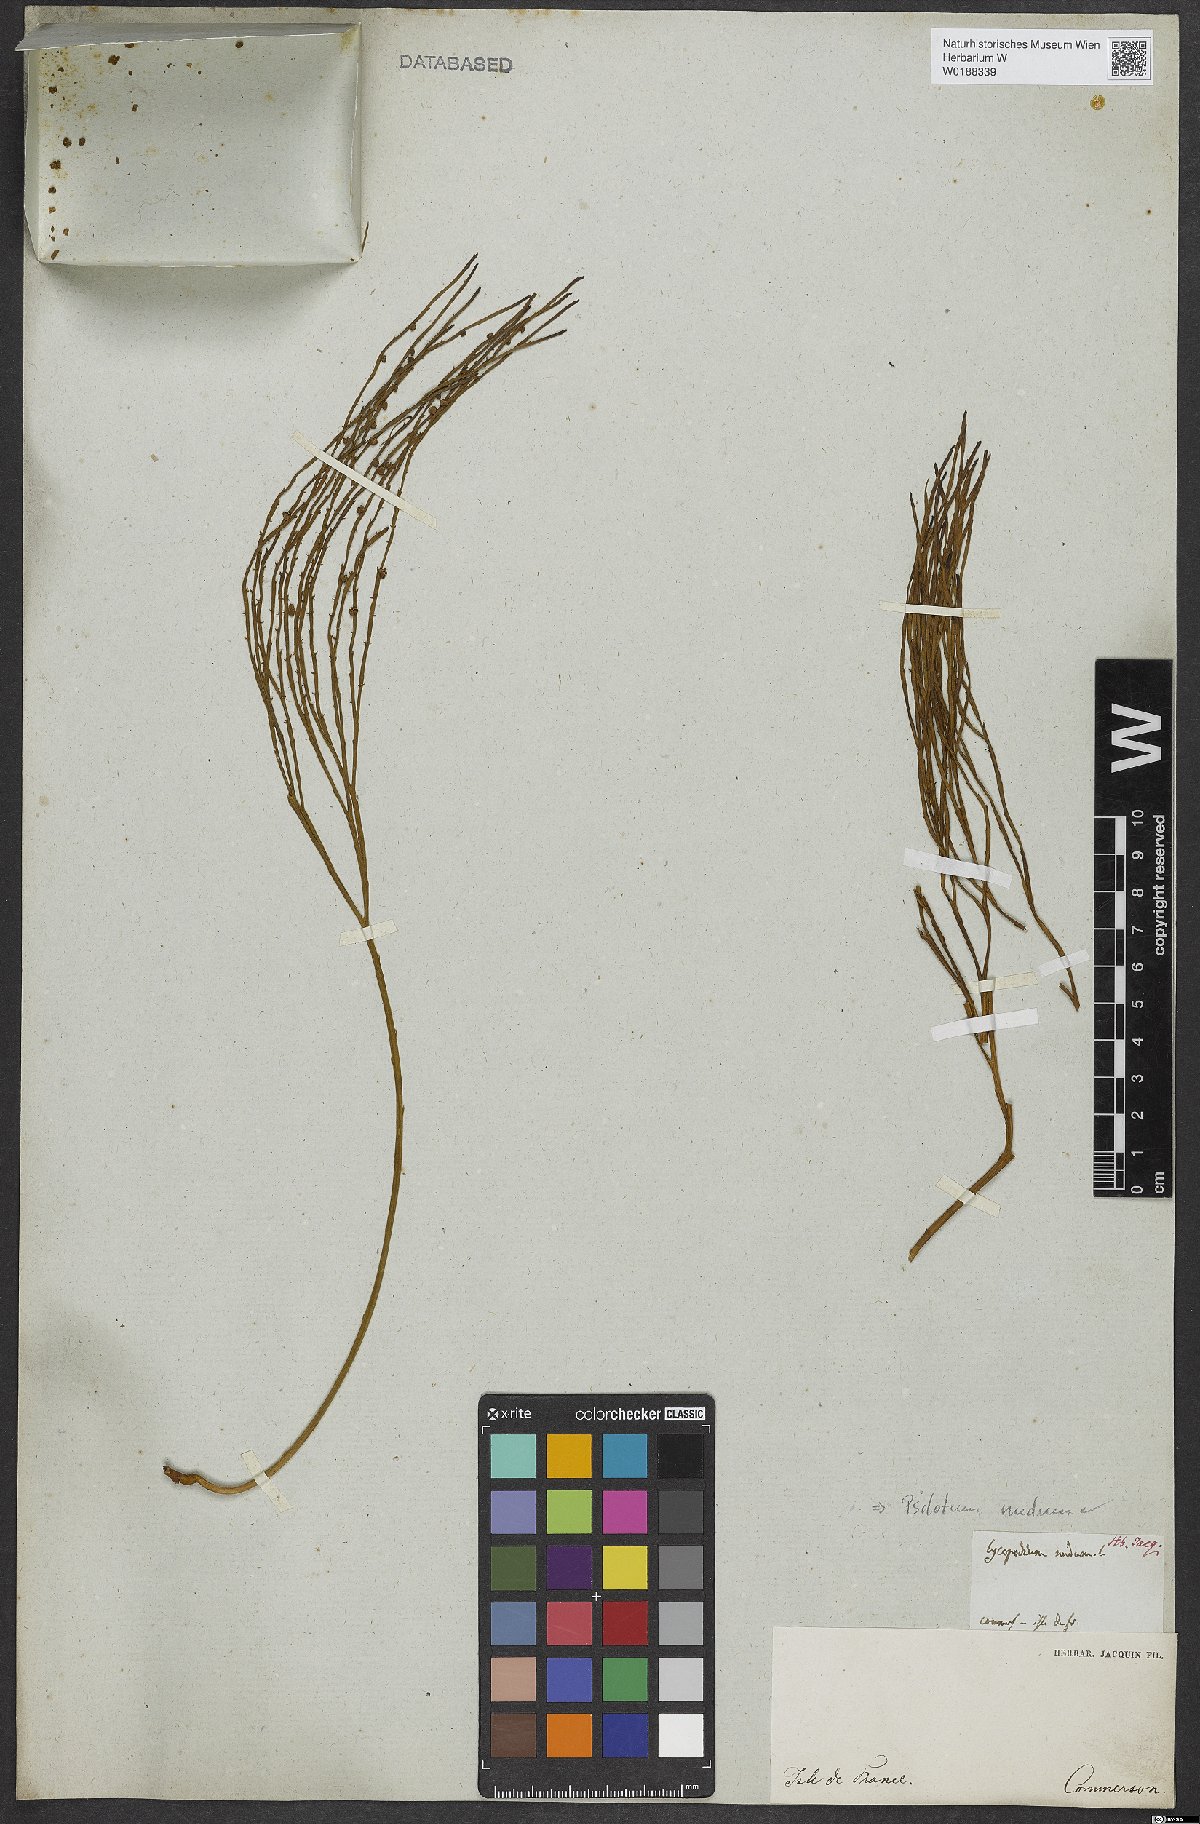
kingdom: Plantae
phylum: Tracheophyta
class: Polypodiopsida
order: Psilotales
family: Psilotaceae
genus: Psilotum
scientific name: Psilotum nudum
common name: Skeleton fork fern
